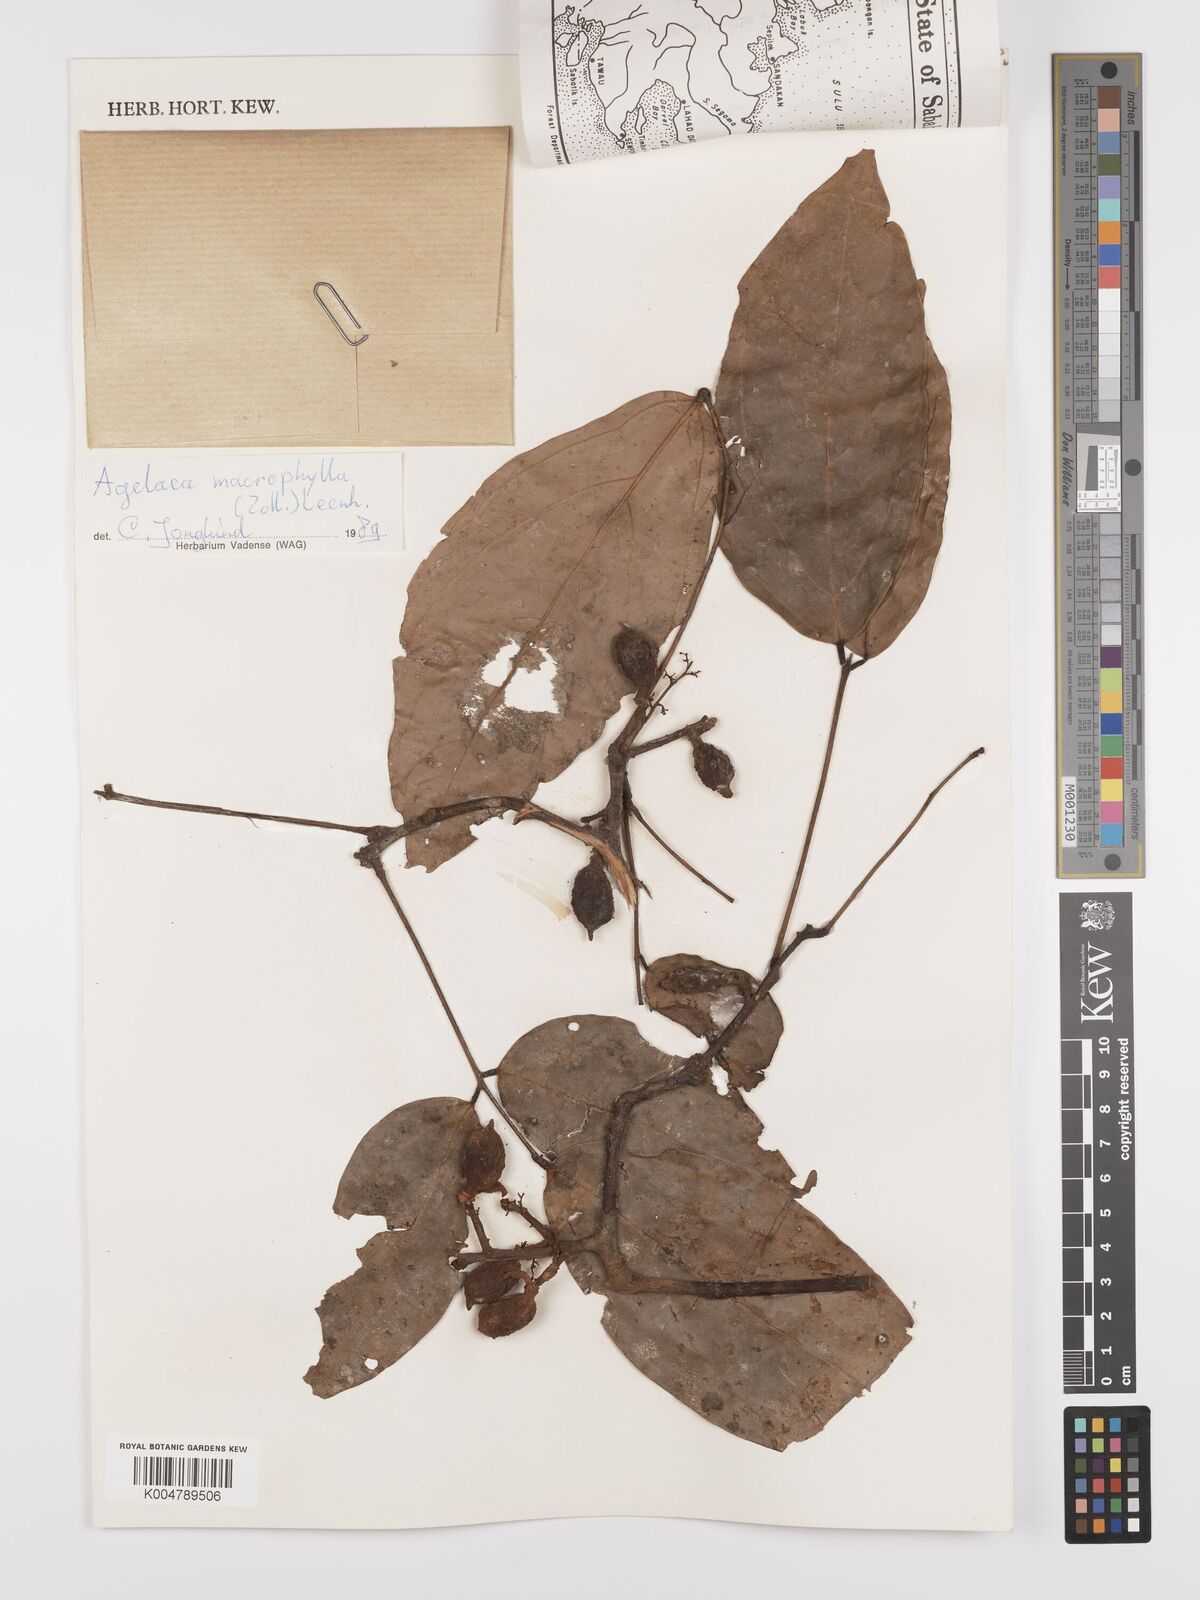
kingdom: Plantae
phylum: Tracheophyta
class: Magnoliopsida
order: Oxalidales
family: Connaraceae
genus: Agelaea
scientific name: Agelaea macrophylla
